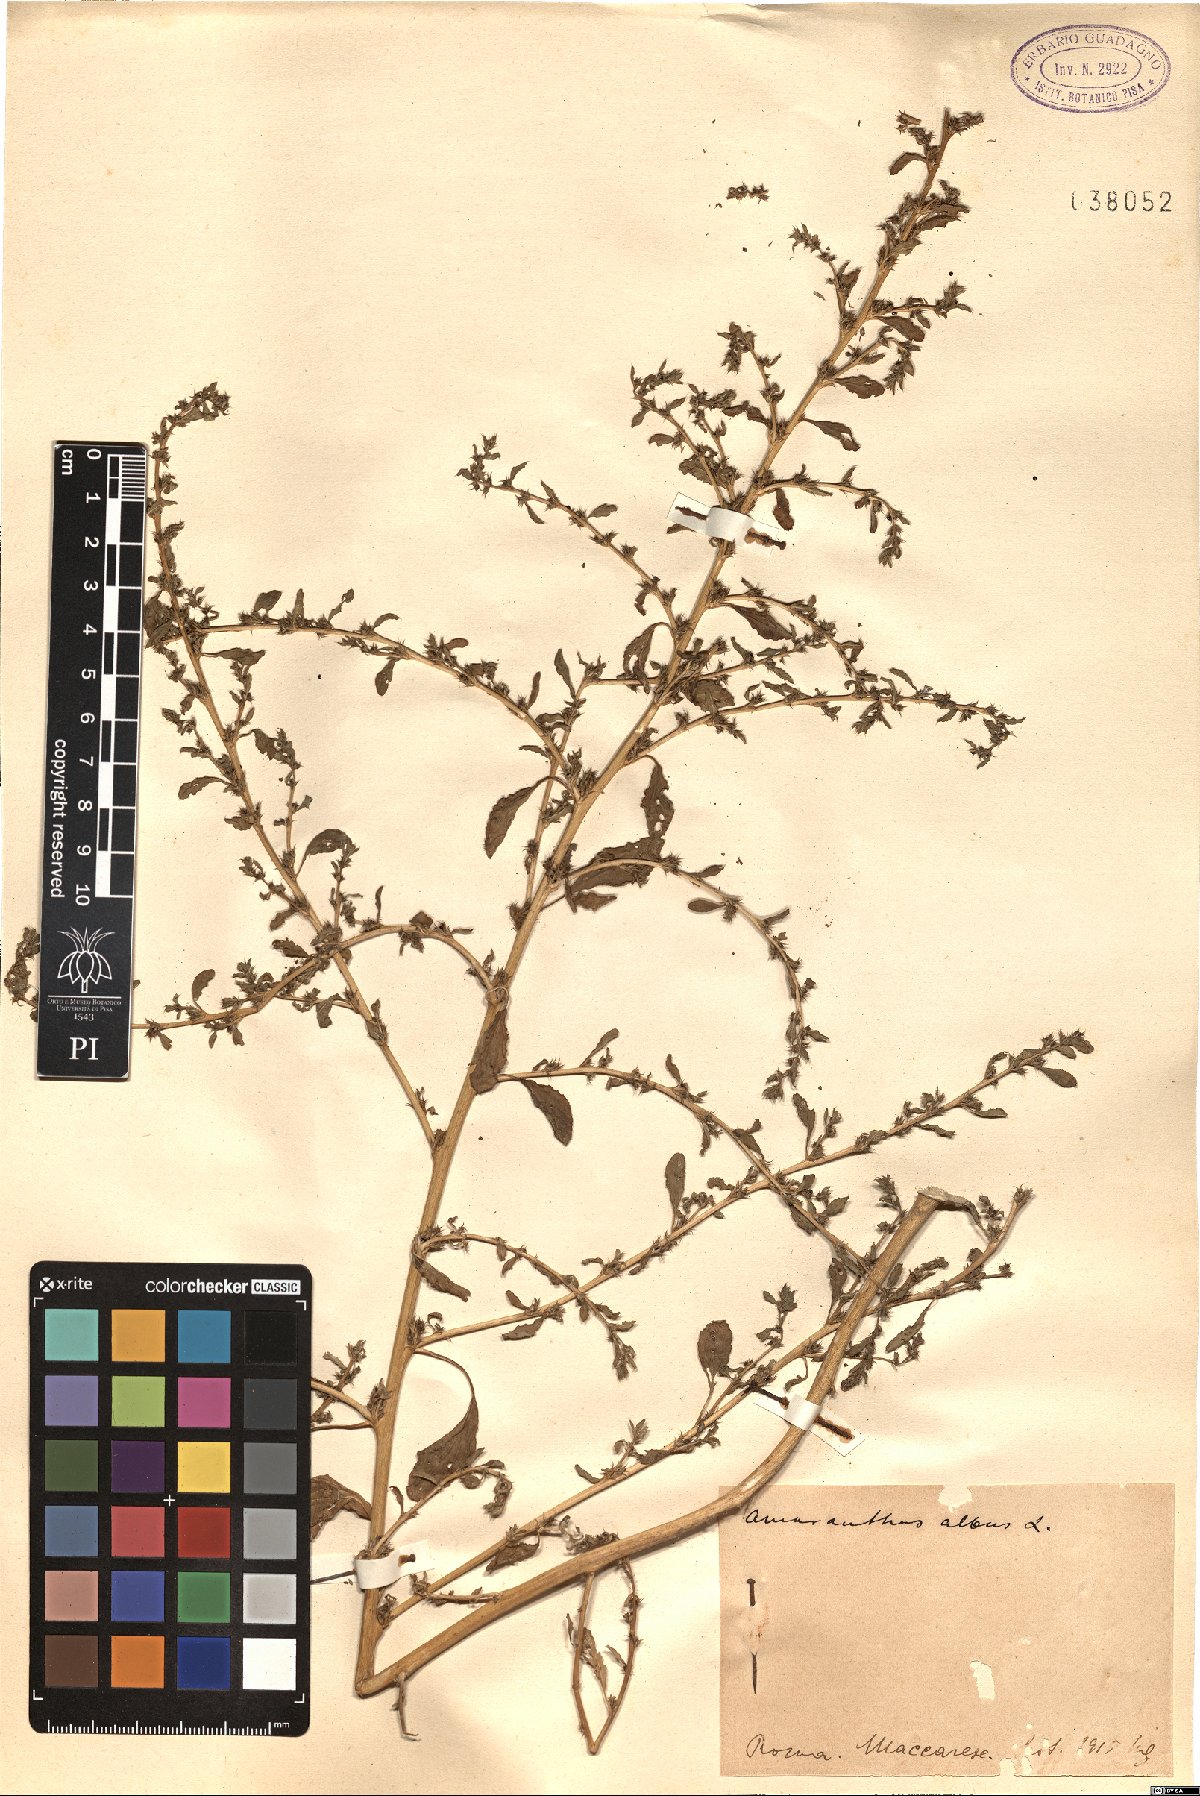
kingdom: Plantae
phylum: Tracheophyta
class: Magnoliopsida
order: Caryophyllales
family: Amaranthaceae
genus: Amaranthus
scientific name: Amaranthus albus
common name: White pigweed
